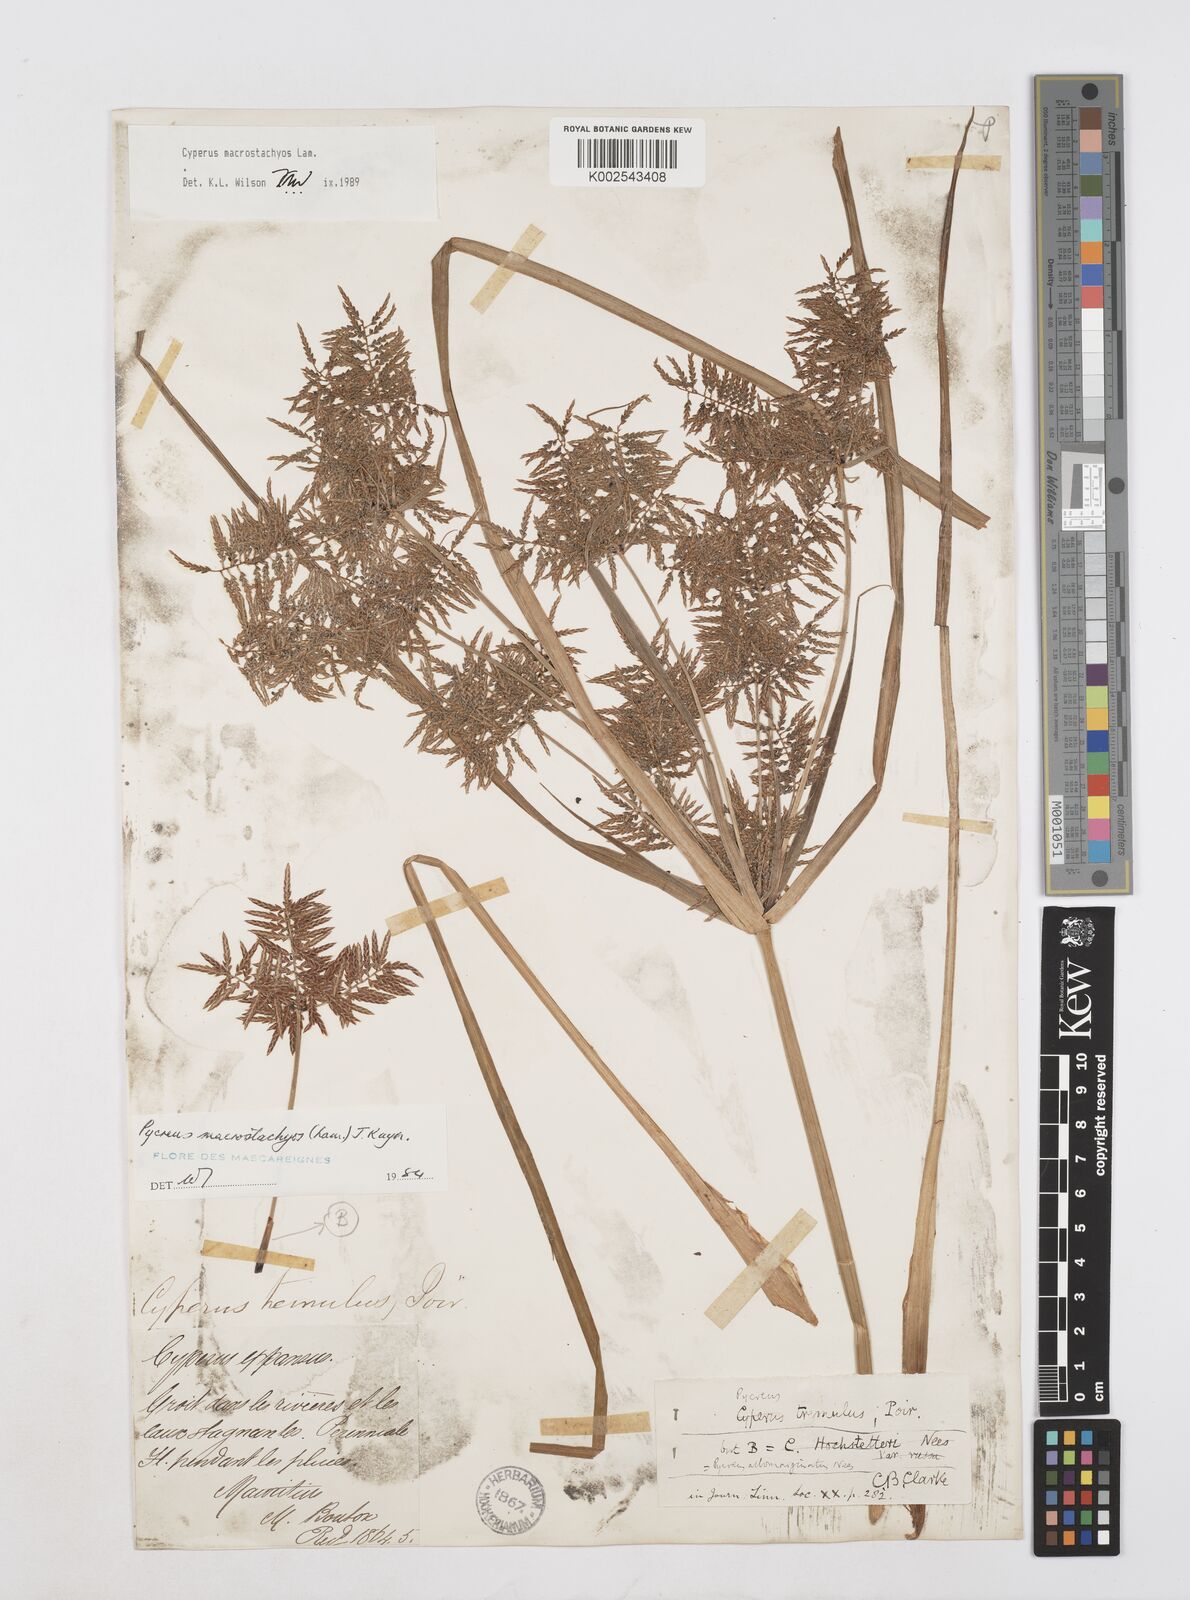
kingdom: Plantae
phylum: Tracheophyta
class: Liliopsida
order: Poales
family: Cyperaceae
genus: Cyperus
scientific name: Cyperus pelophilus
